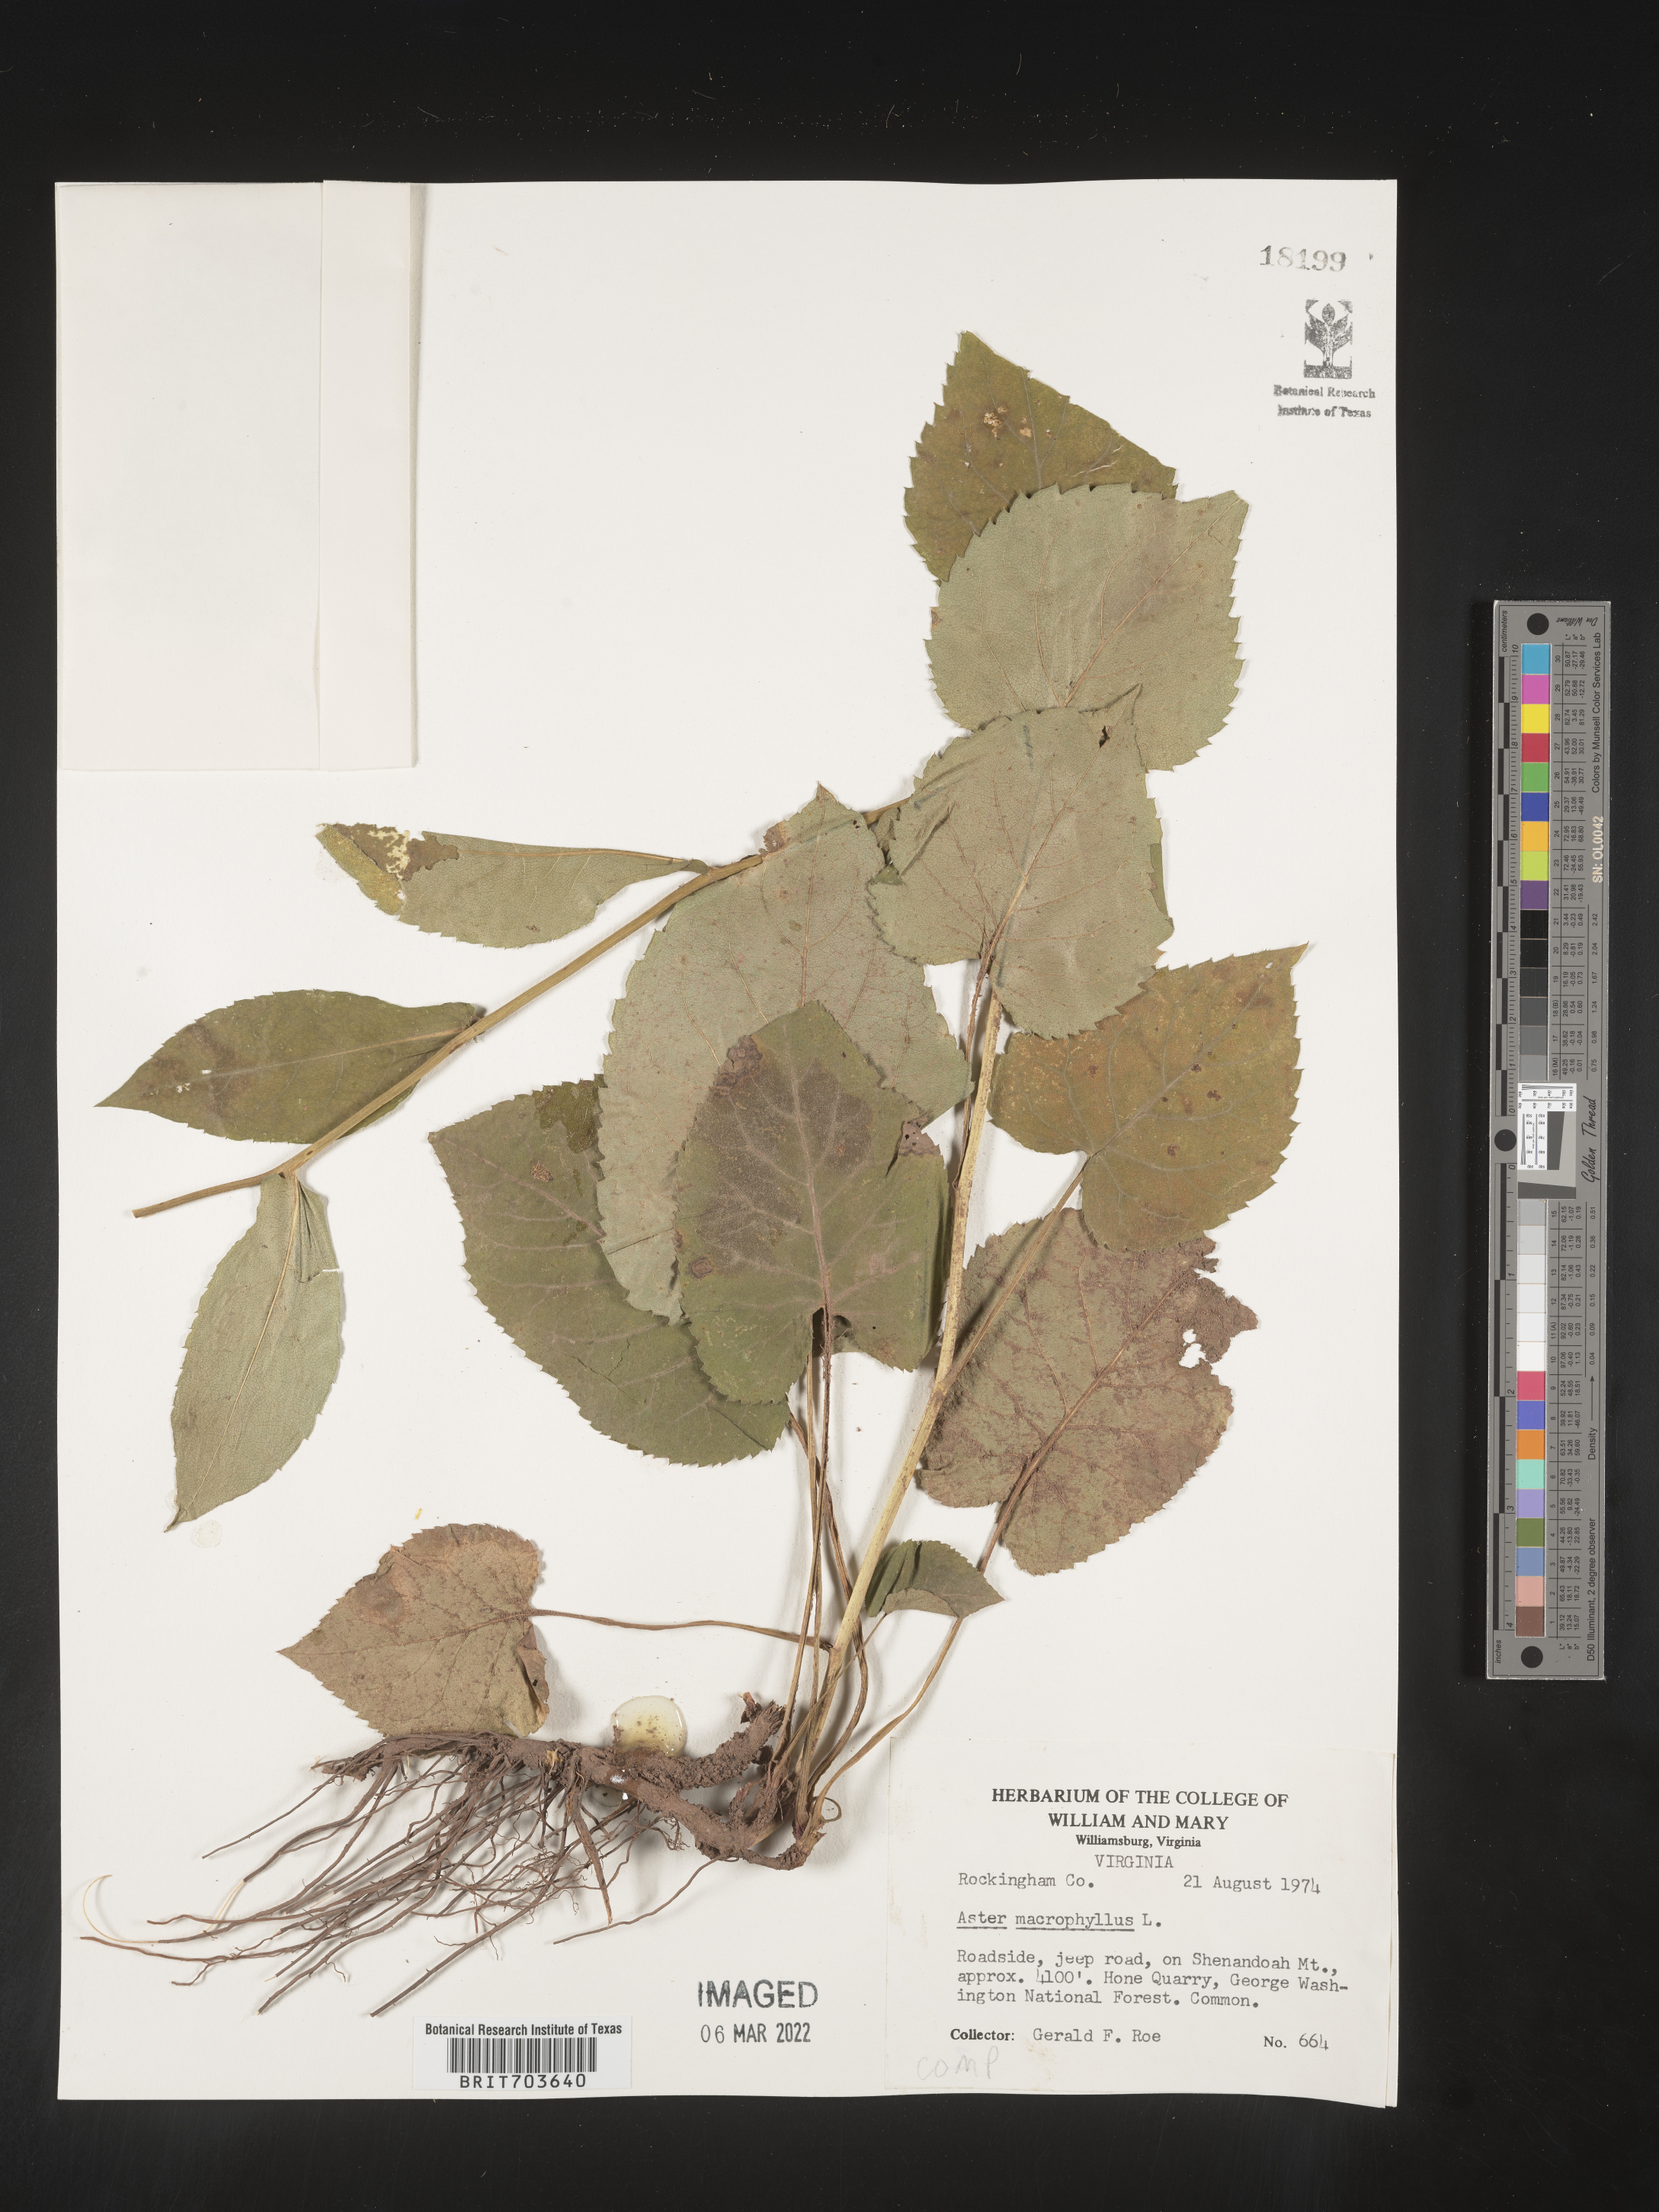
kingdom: Plantae
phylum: Tracheophyta
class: Magnoliopsida
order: Asterales
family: Asteraceae
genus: Eurybia
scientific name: Eurybia macrophylla
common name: Big-leaved aster
